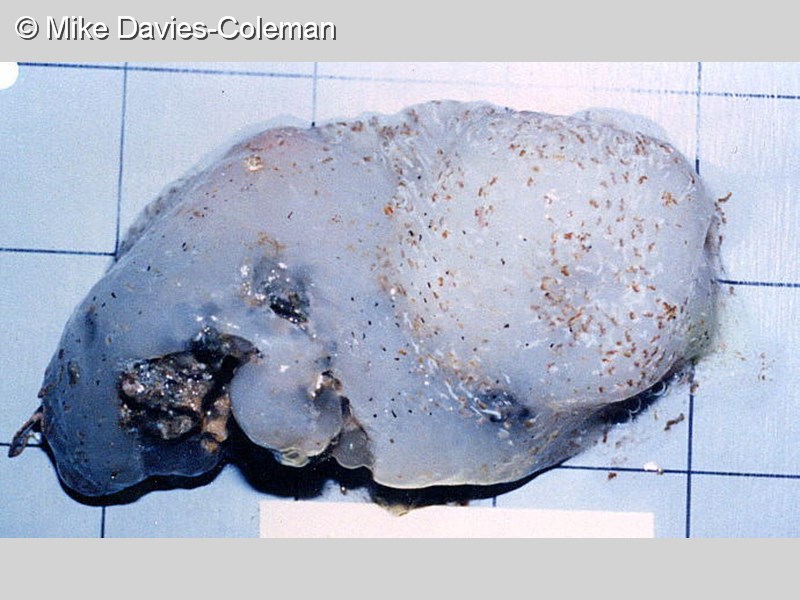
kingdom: Animalia
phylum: Chordata
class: Ascidiacea
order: Aplousobranchia
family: Pseudodistomidae
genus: Pseudodistoma
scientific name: Pseudodistoma
